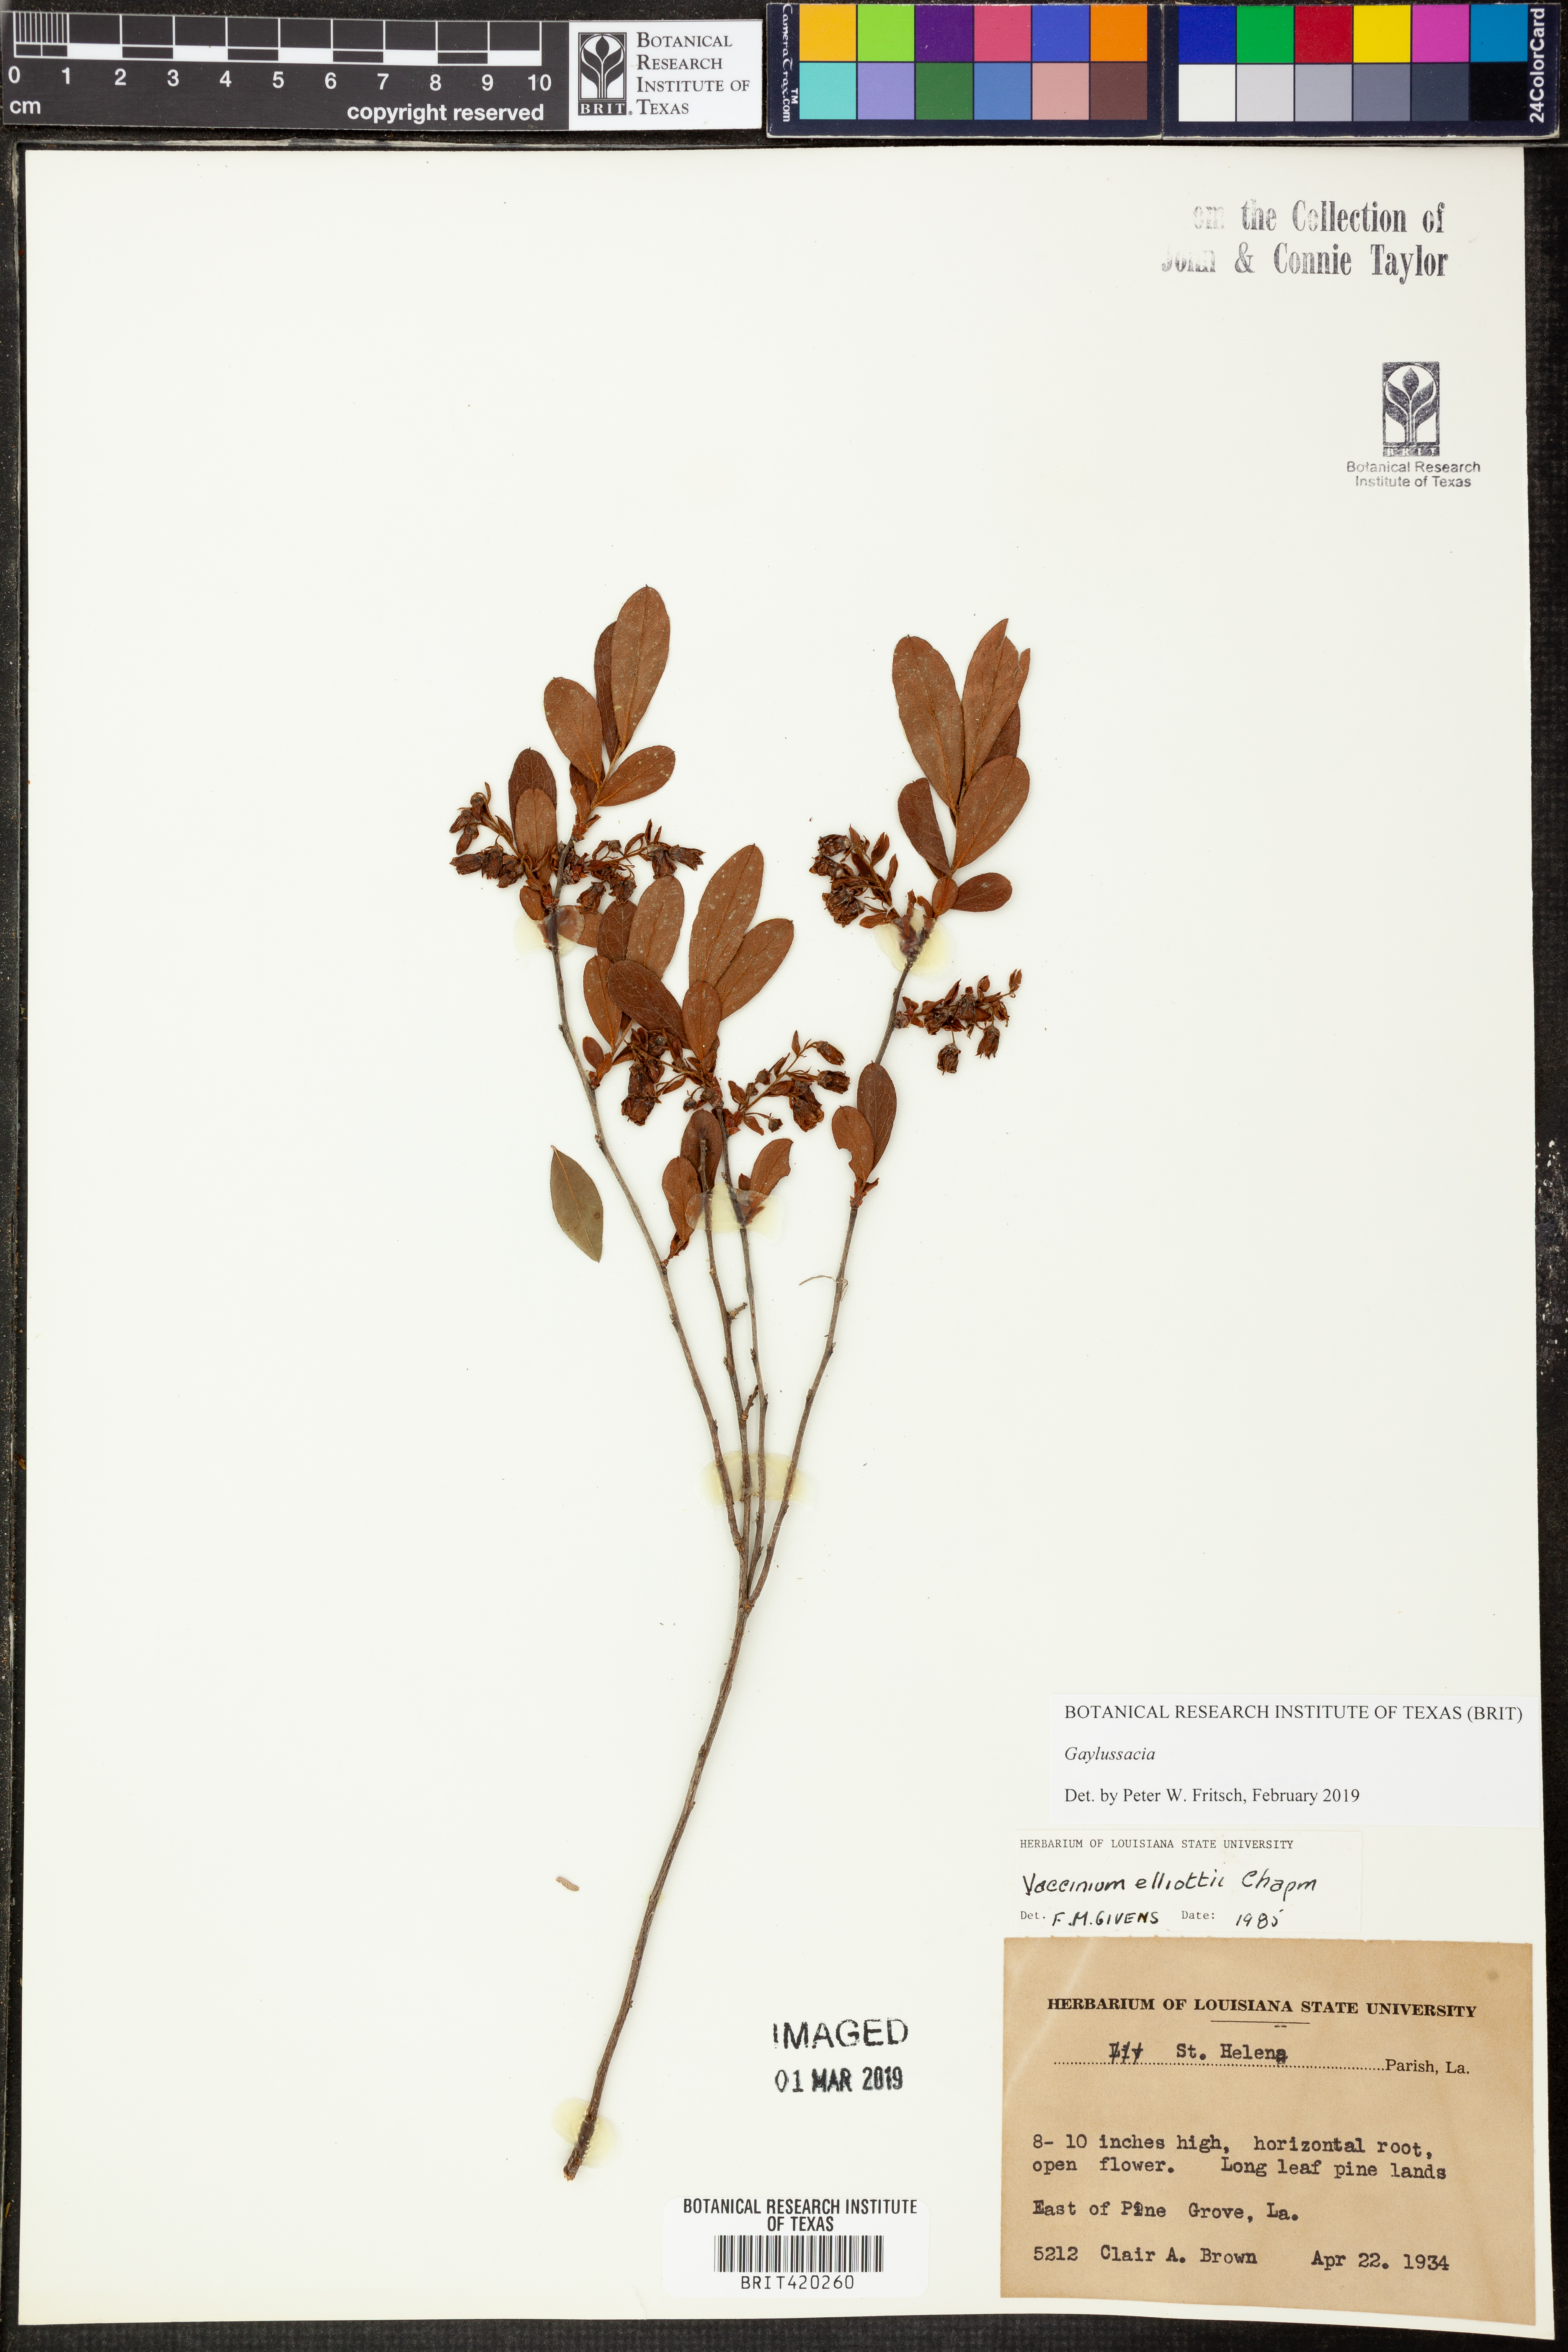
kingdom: Plantae
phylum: Tracheophyta
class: Magnoliopsida
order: Ericales
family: Ericaceae
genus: Gaylussacia
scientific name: Gaylussacia dumosa
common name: Dwarf huckleberry
